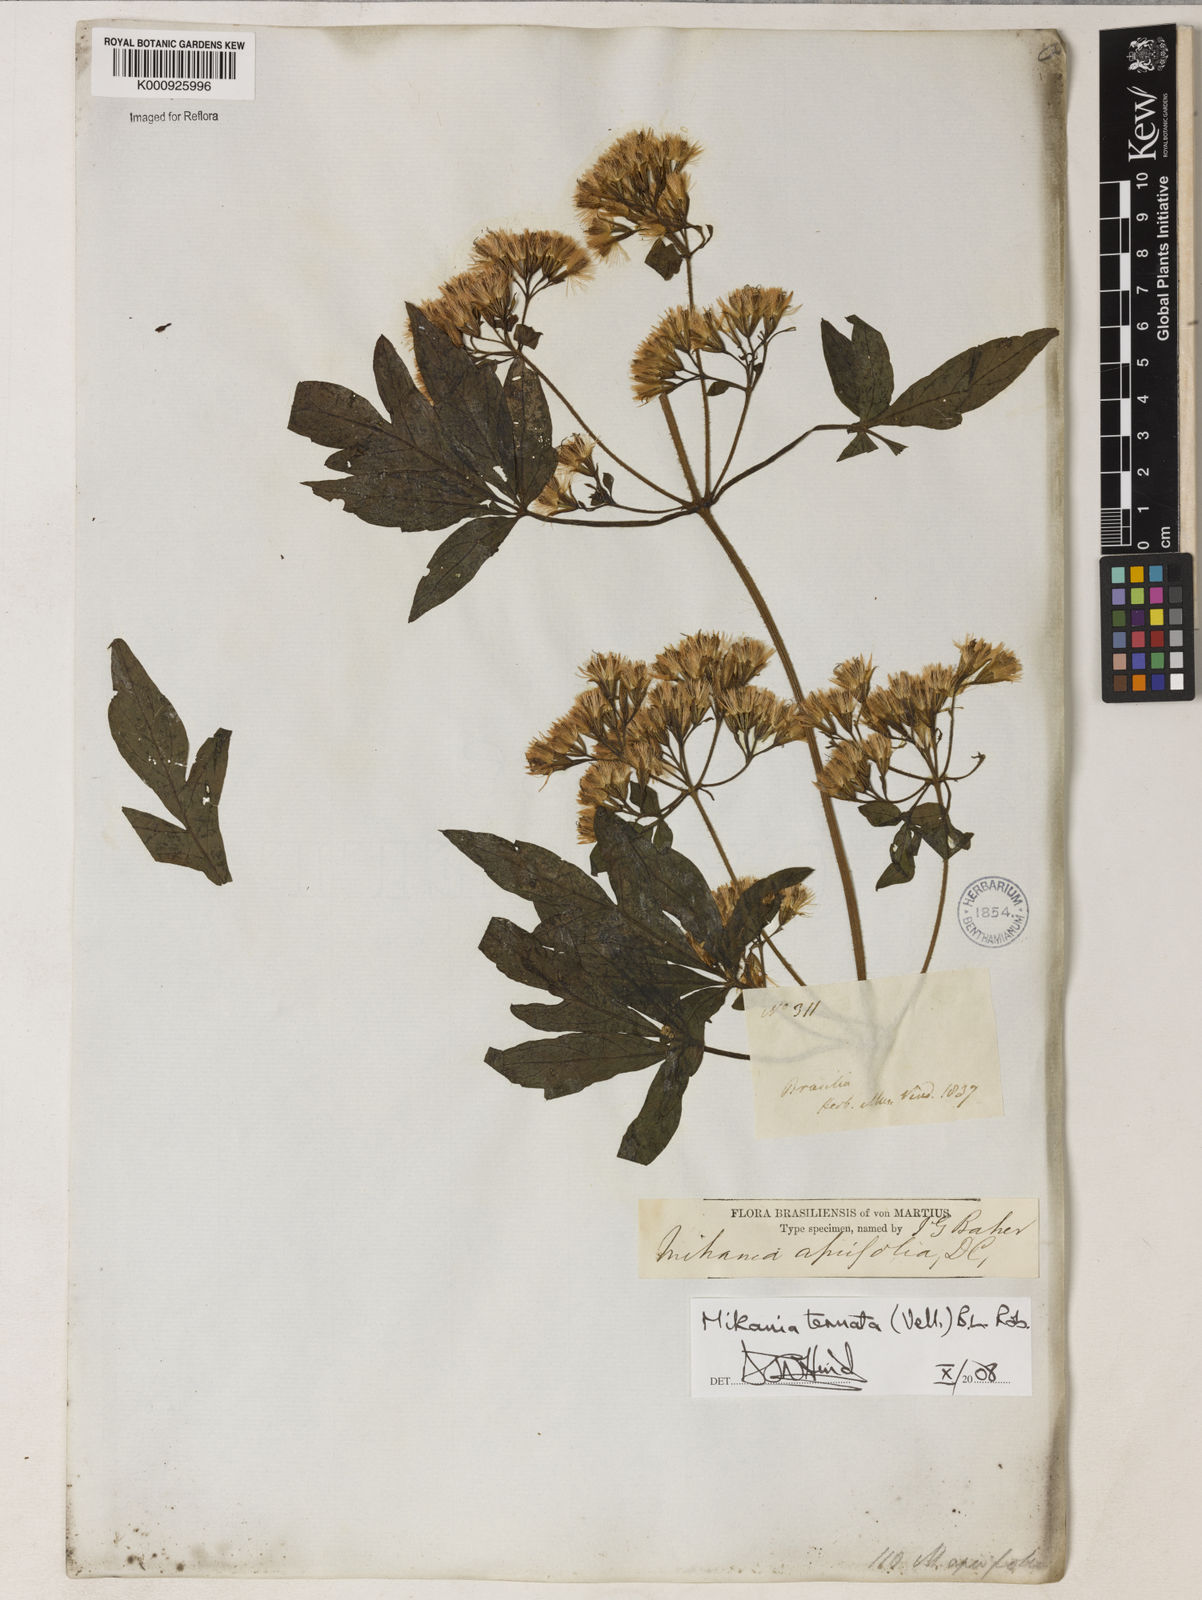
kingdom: Plantae
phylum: Tracheophyta
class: Magnoliopsida
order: Asterales
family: Asteraceae
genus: Mikania
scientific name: Mikania ternata
